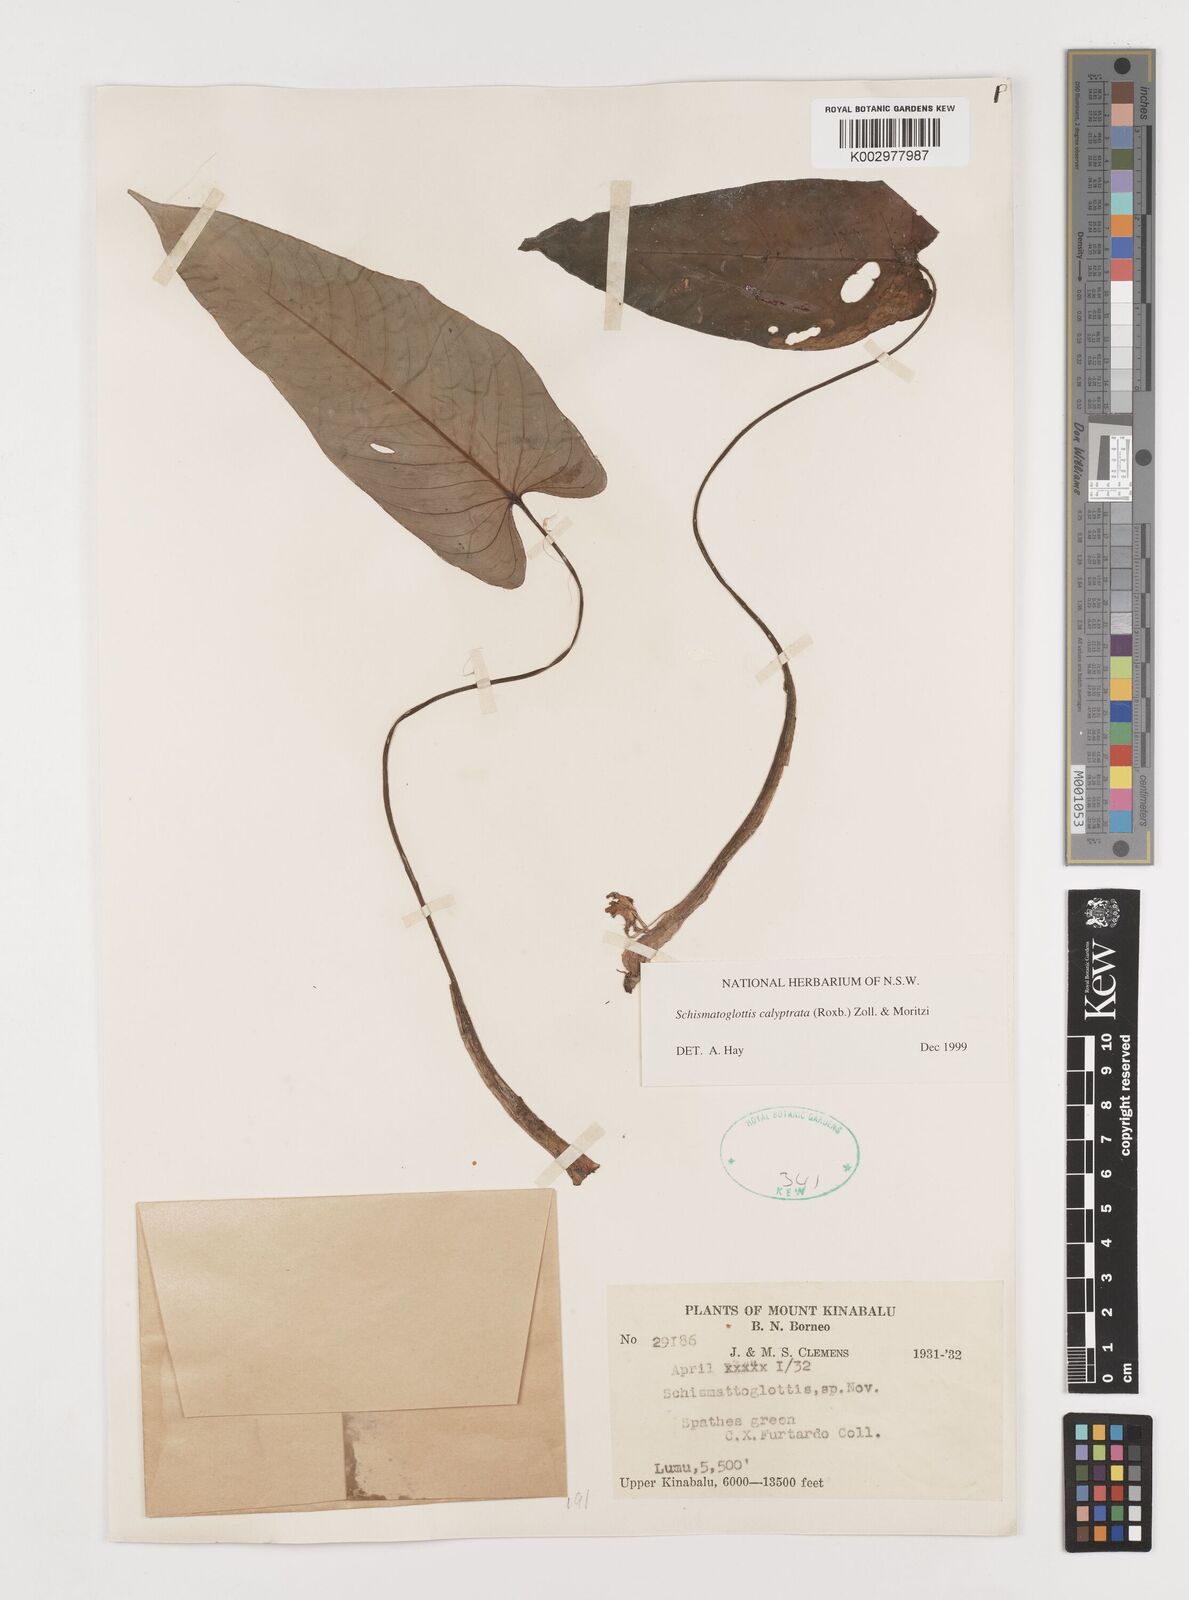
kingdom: Plantae
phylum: Tracheophyta
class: Liliopsida
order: Alismatales
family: Araceae
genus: Schismatoglottis
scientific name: Schismatoglottis calyptrata
